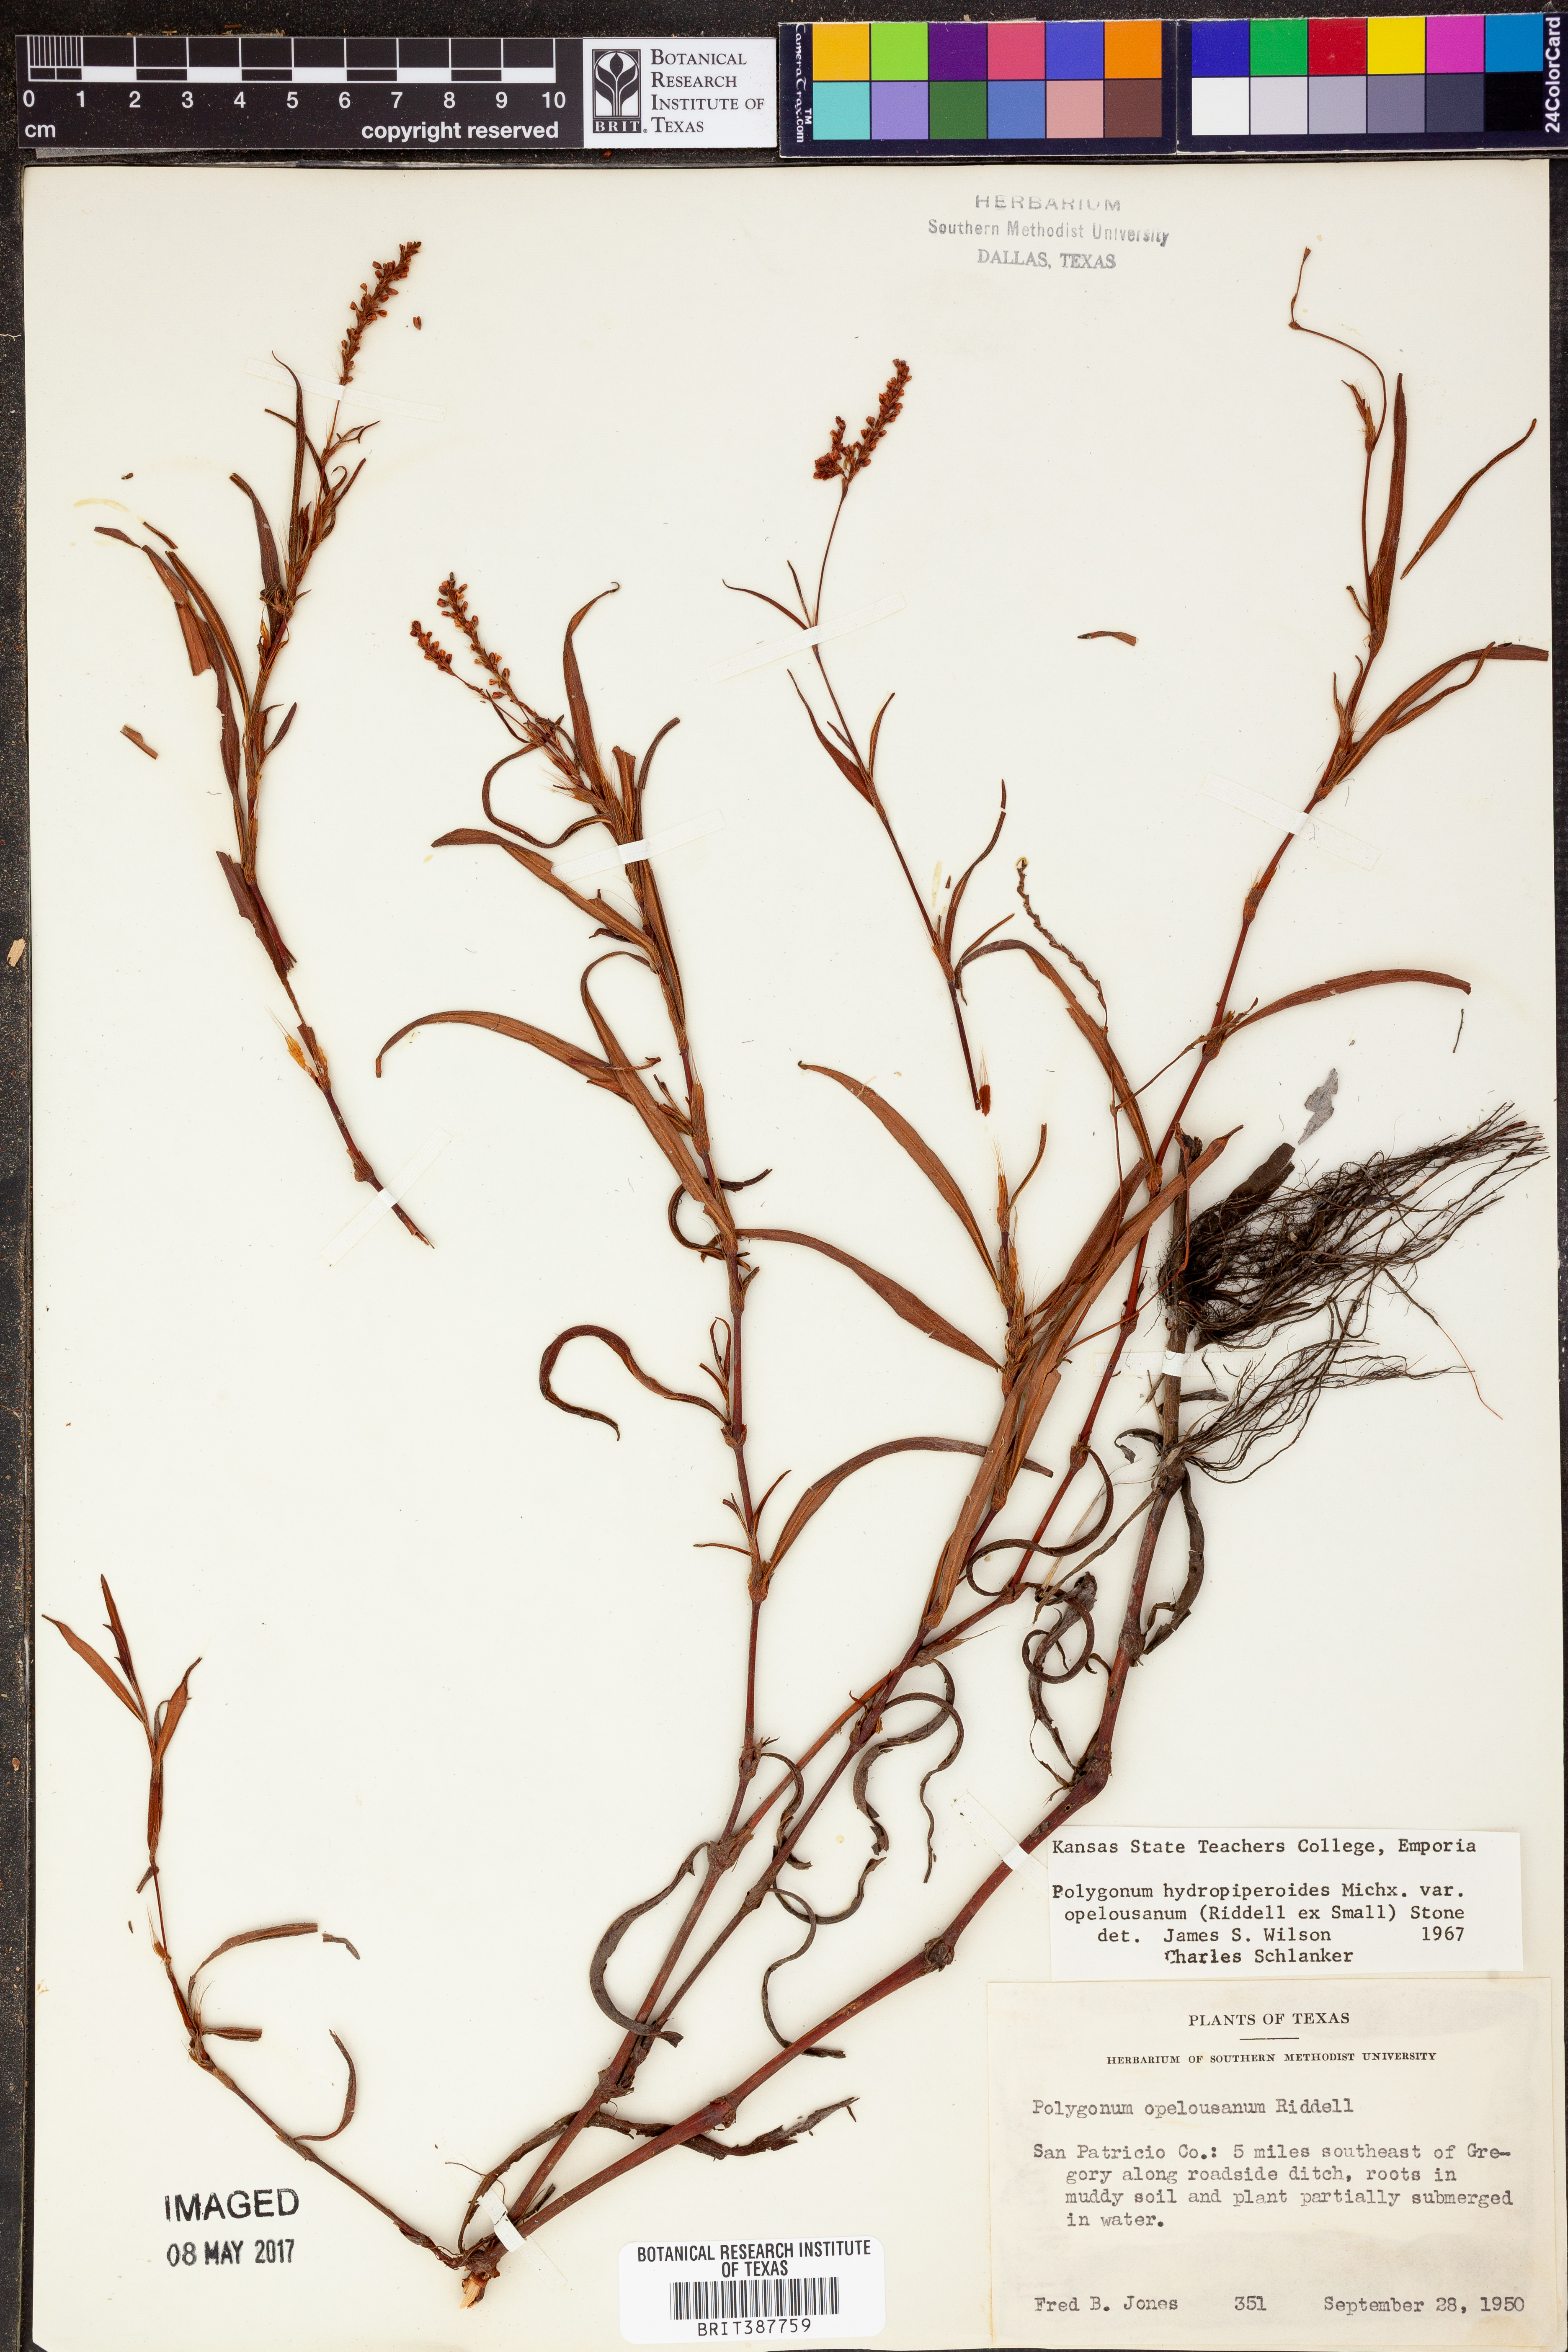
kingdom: Plantae
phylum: Tracheophyta
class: Magnoliopsida
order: Caryophyllales
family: Polygonaceae
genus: Persicaria
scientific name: Persicaria hydropiperoides
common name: Swamp smartweed
